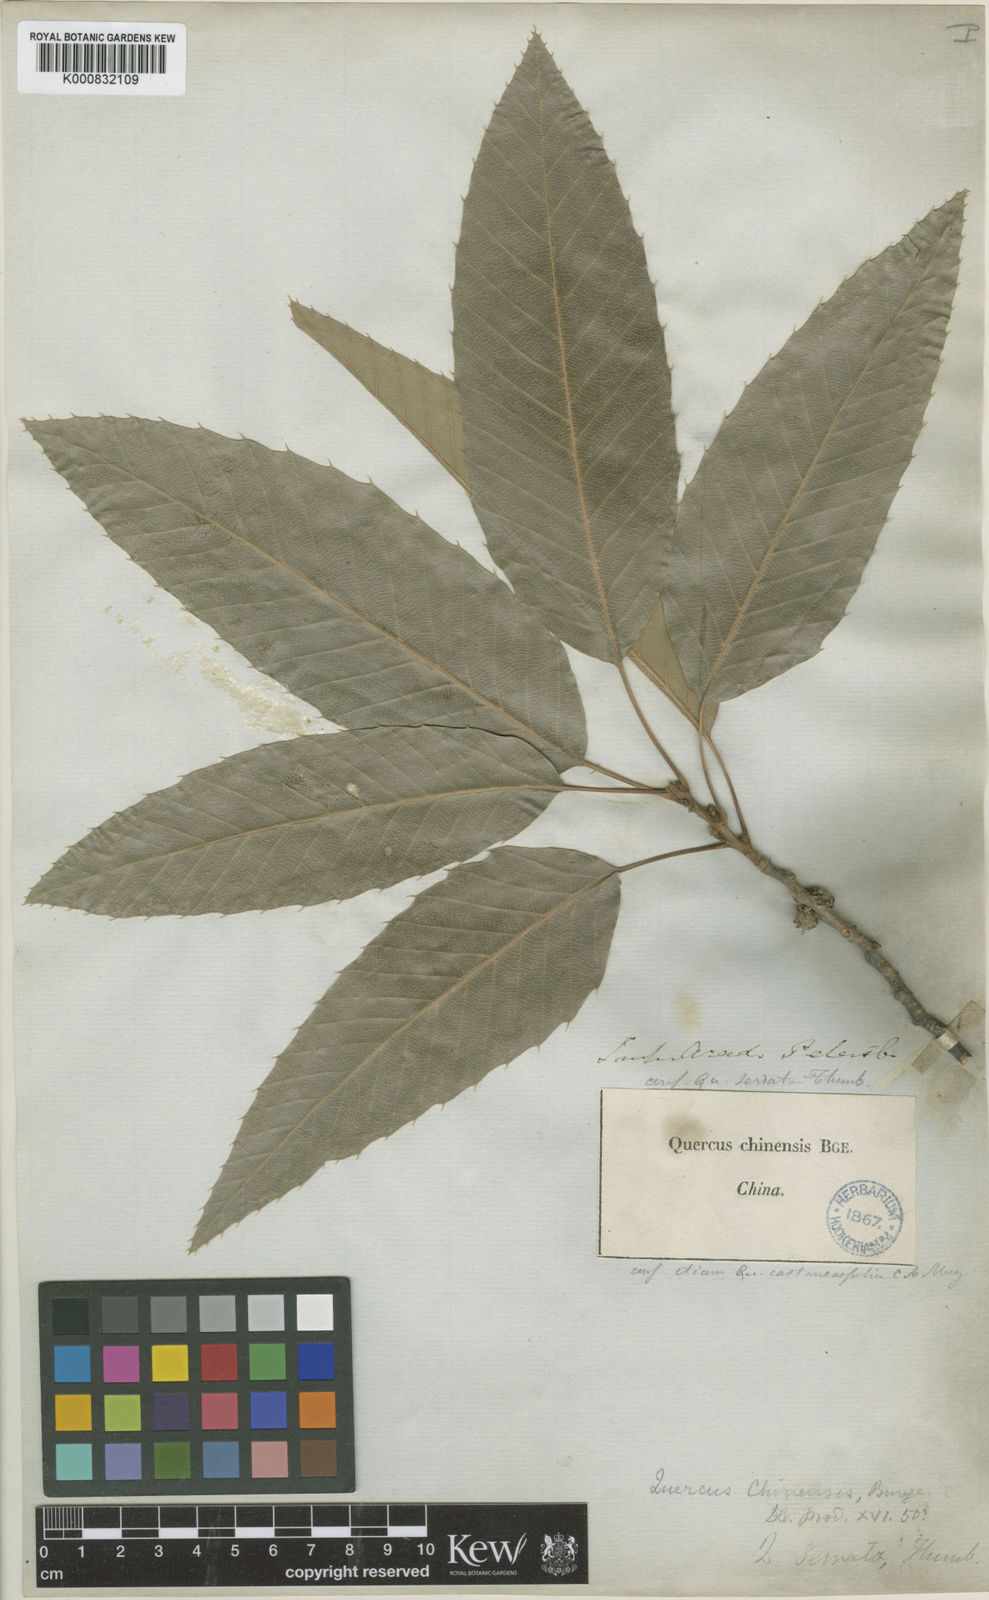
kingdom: Plantae
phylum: Tracheophyta
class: Magnoliopsida
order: Fagales
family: Fagaceae
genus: Quercus
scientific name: Quercus variabilis
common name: Chinese cork oak
